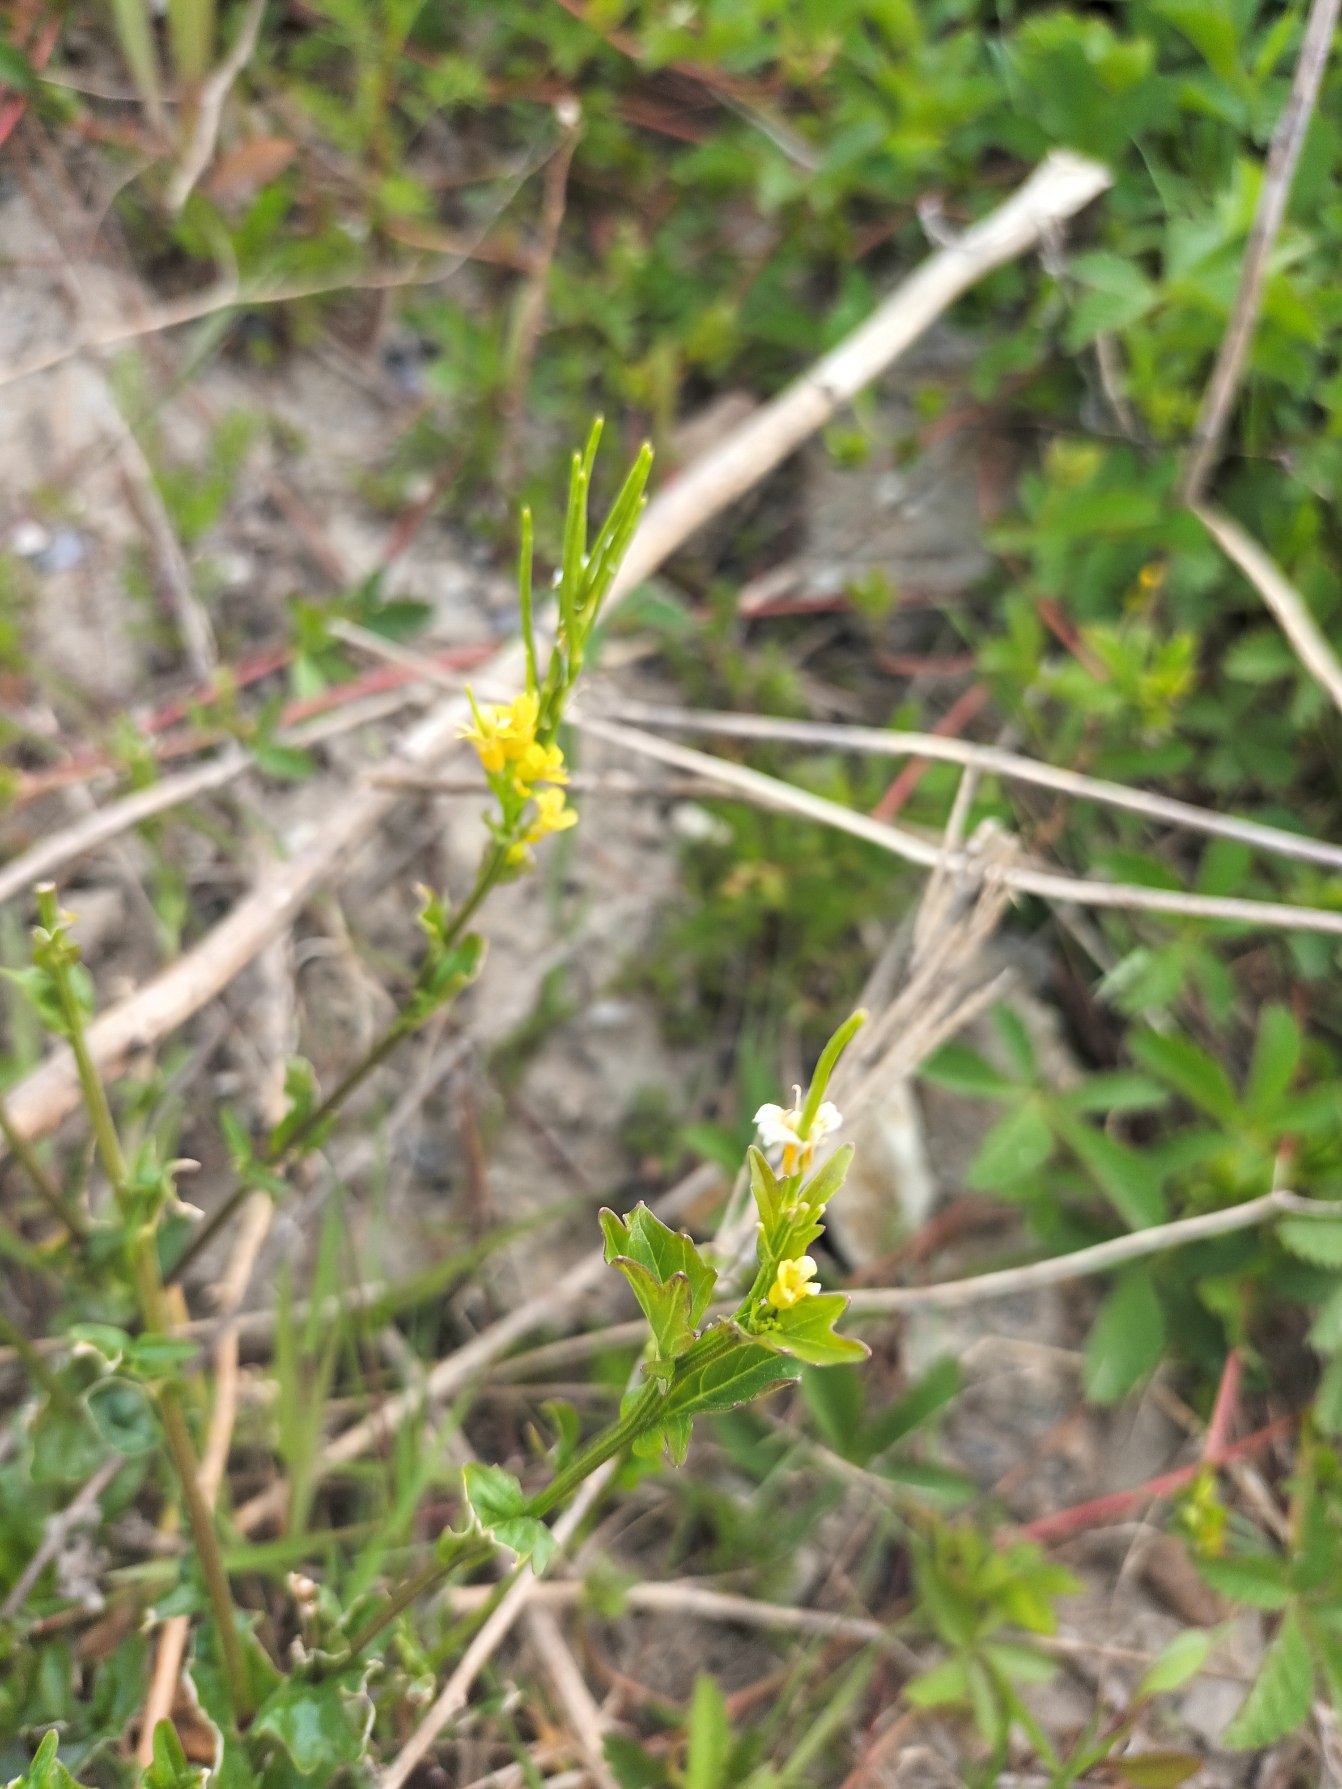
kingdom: Plantae
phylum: Tracheophyta
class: Magnoliopsida
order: Brassicales
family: Brassicaceae
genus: Barbarea
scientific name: Barbarea vulgaris
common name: Almindelig vinterkarse (varietet)
